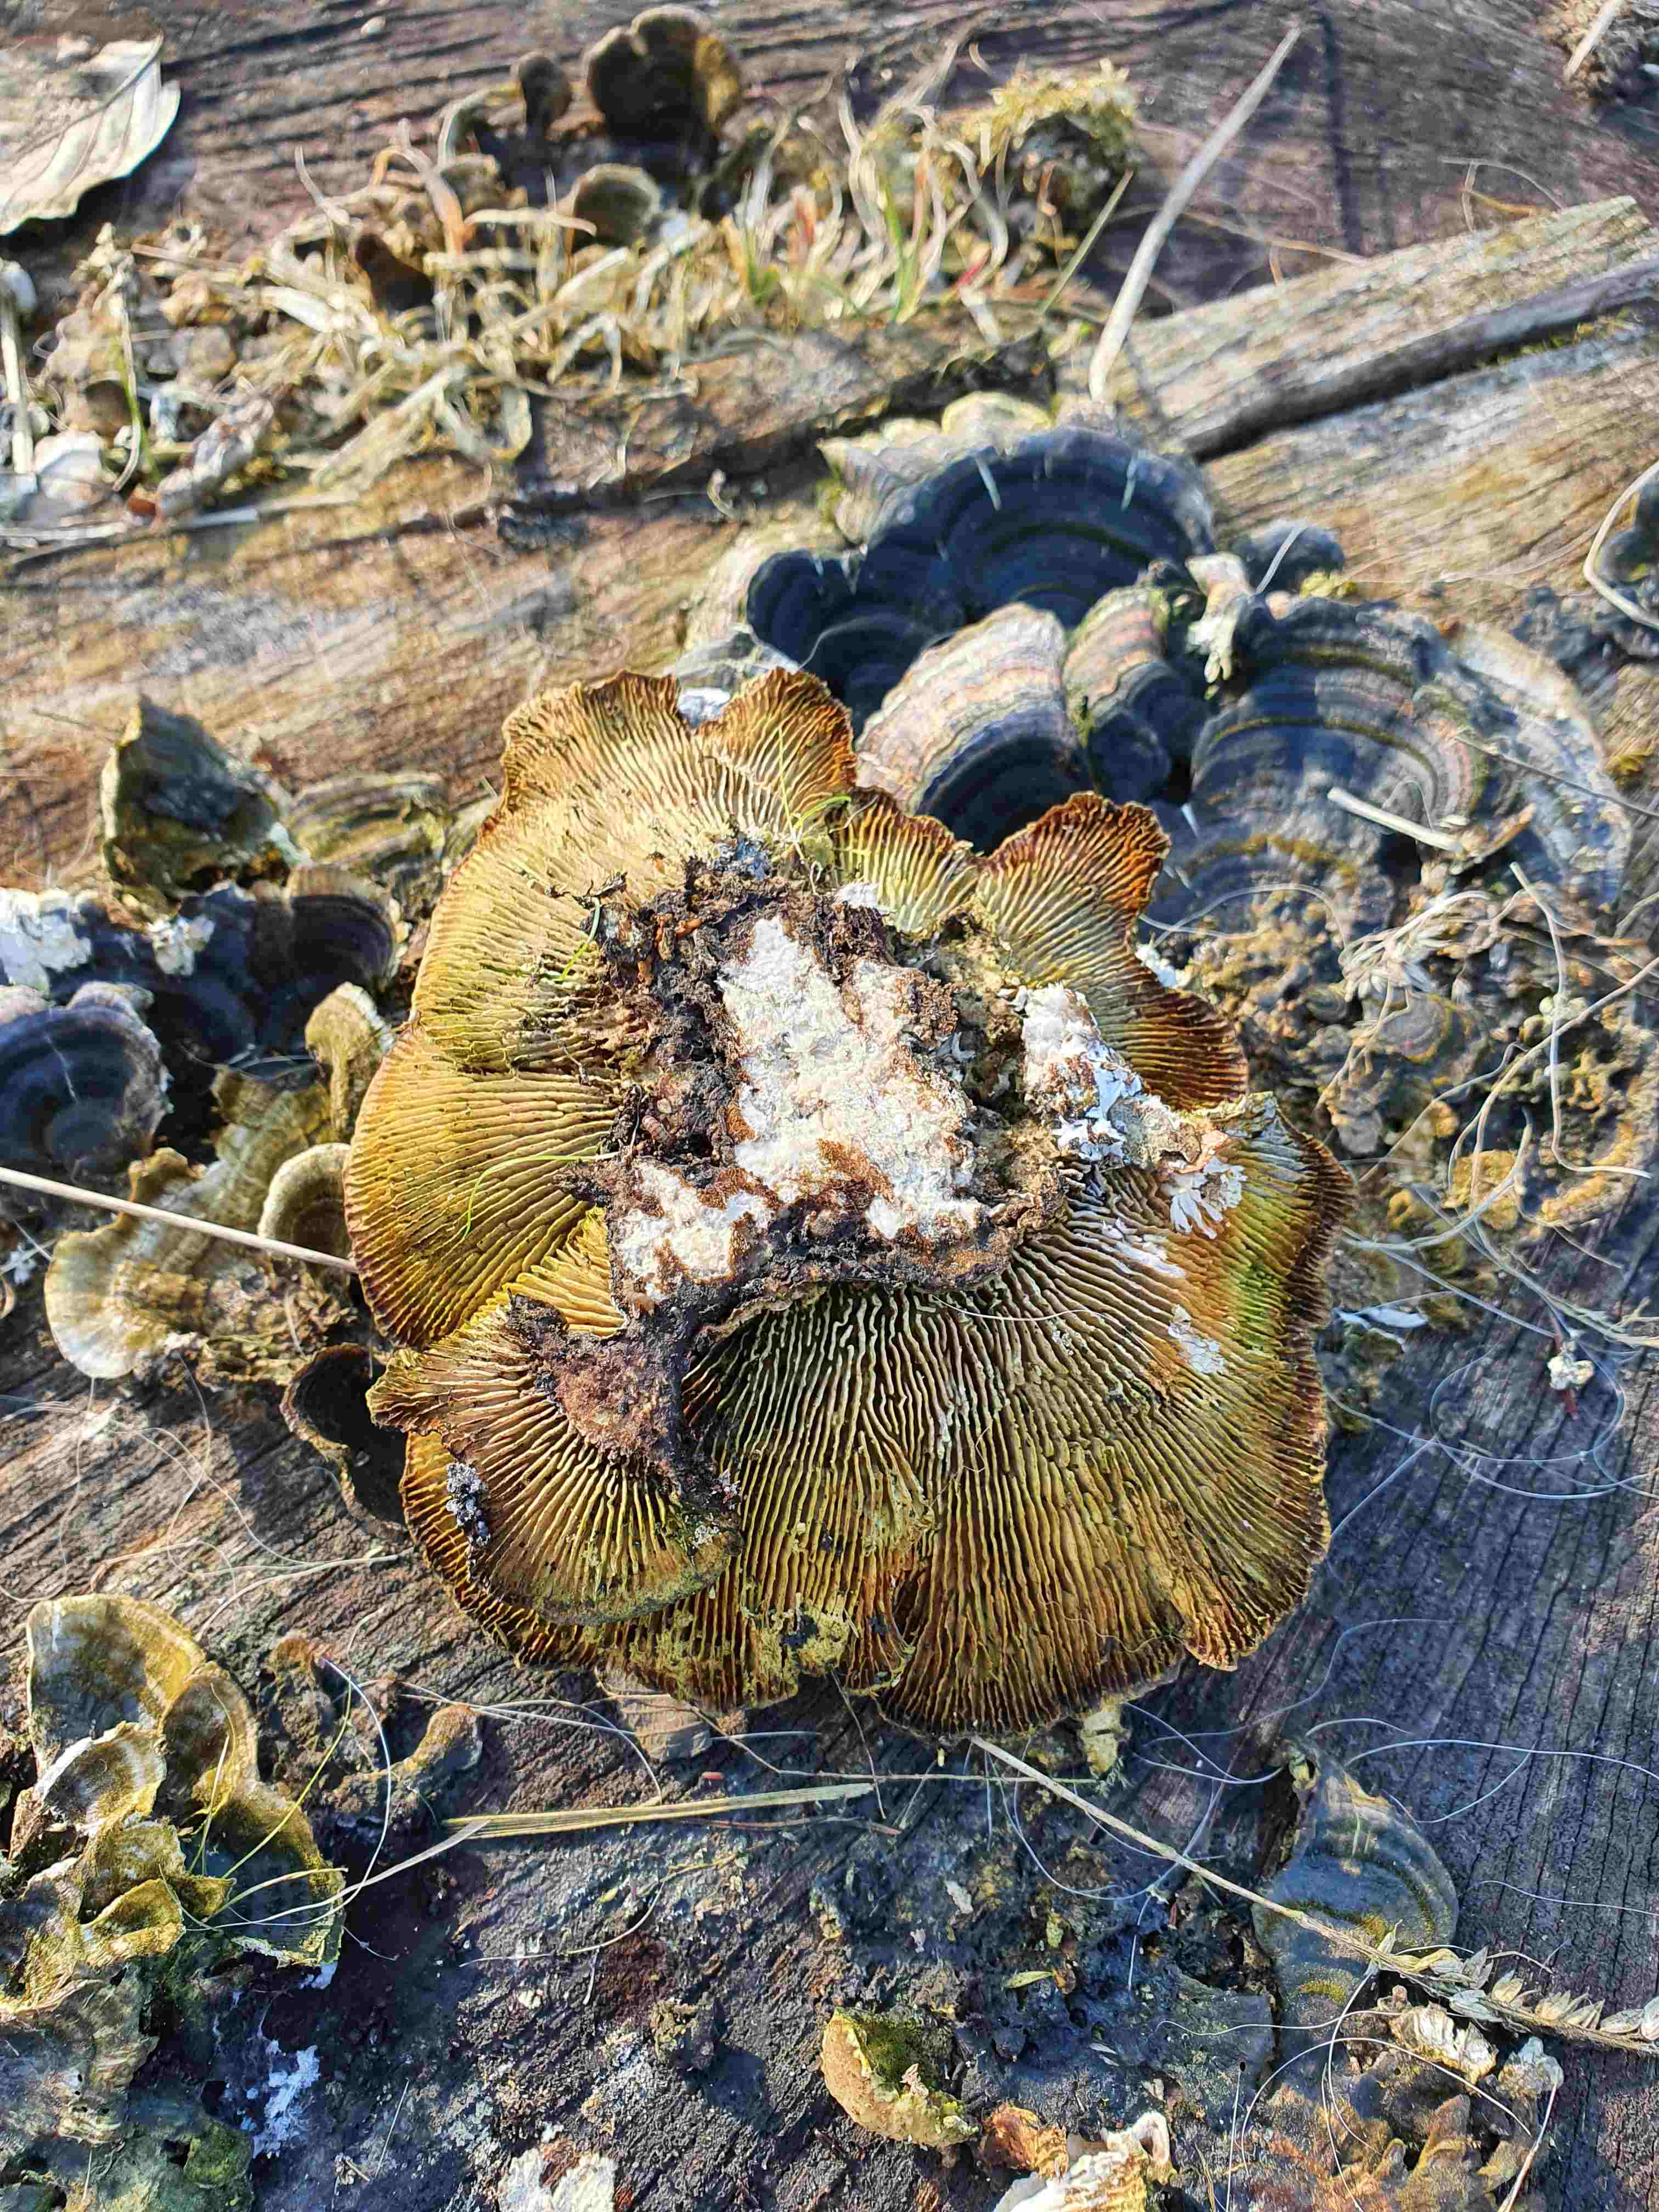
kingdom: Fungi
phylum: Basidiomycota
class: Agaricomycetes
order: Polyporales
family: Polyporaceae
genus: Lenzites
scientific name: Lenzites betulinus
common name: birke-læderporesvamp
